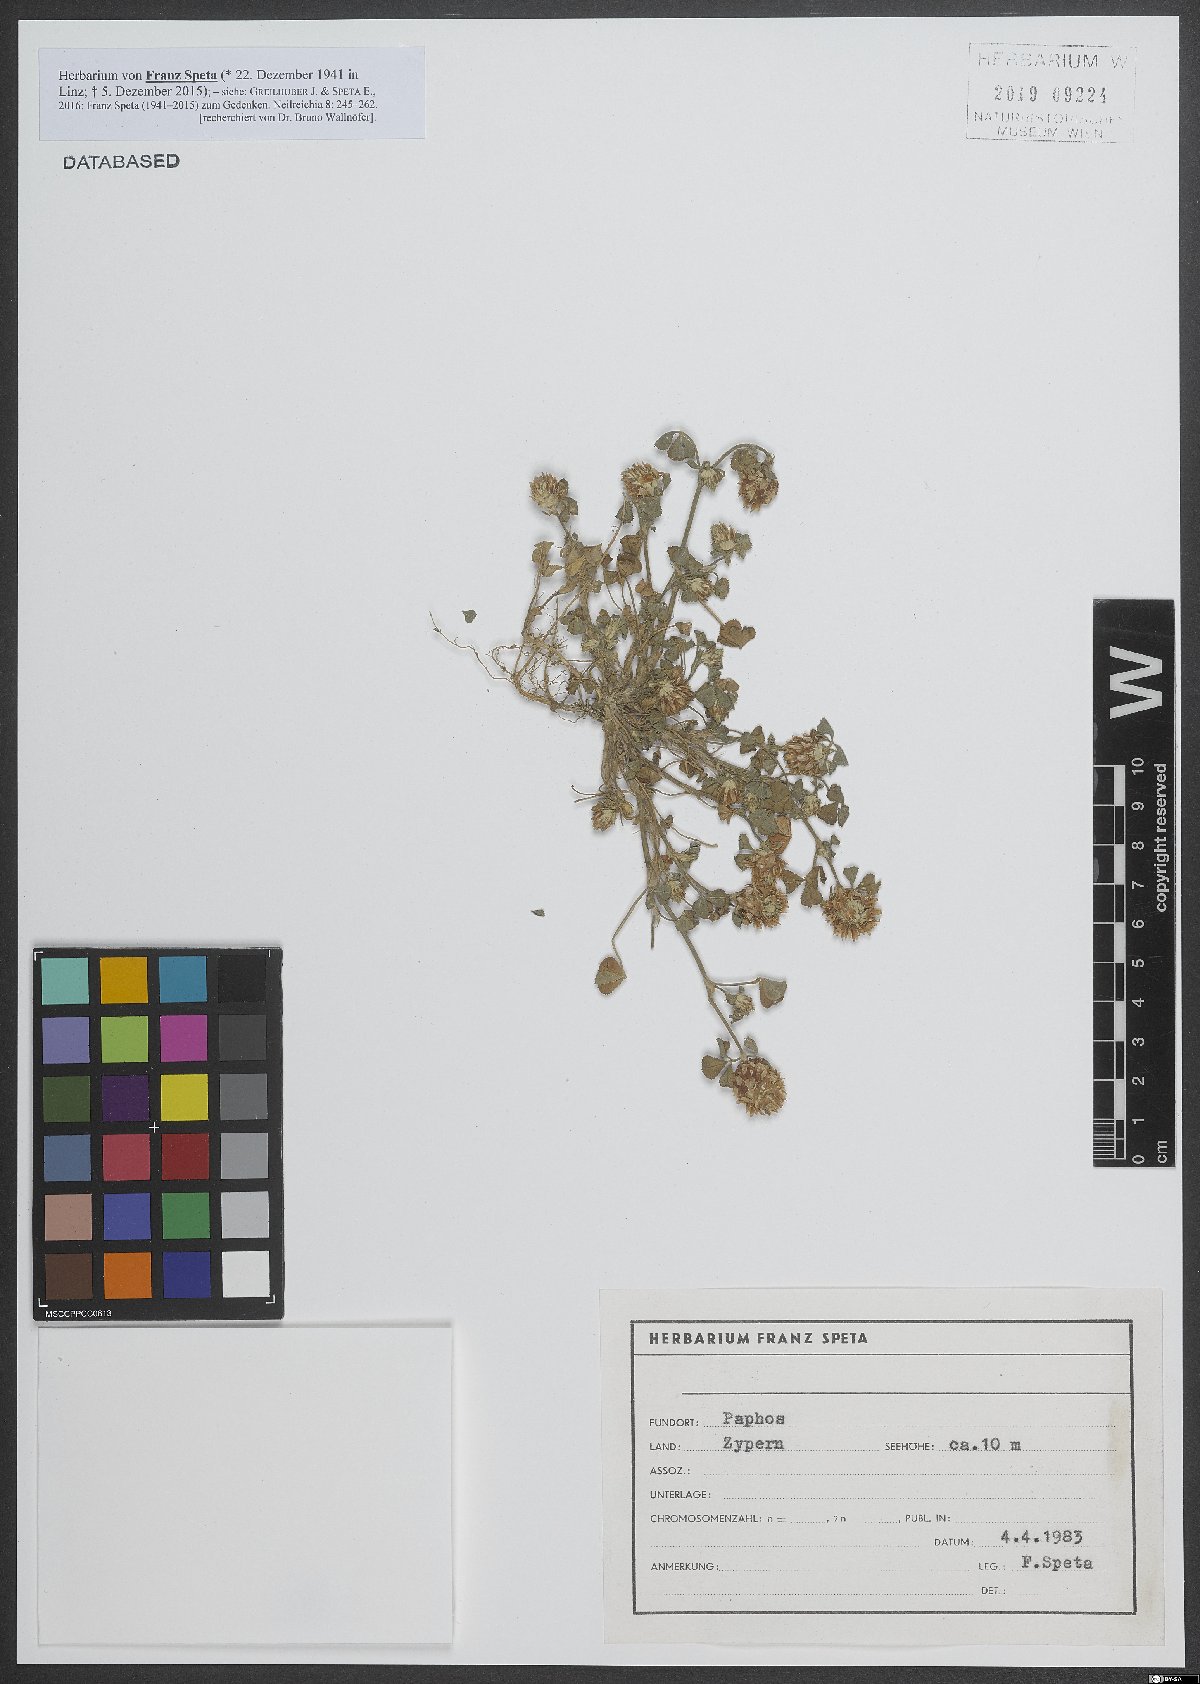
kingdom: Plantae
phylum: Tracheophyta
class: Magnoliopsida
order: Fabales
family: Fabaceae
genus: Trifolium
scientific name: Trifolium argutum
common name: Sharp-tooth clover
